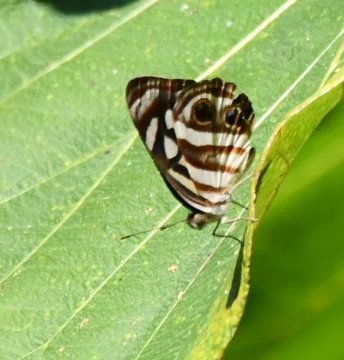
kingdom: Animalia
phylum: Arthropoda
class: Insecta
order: Lepidoptera
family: Nymphalidae
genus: Dynamine
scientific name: Dynamine mylitta
